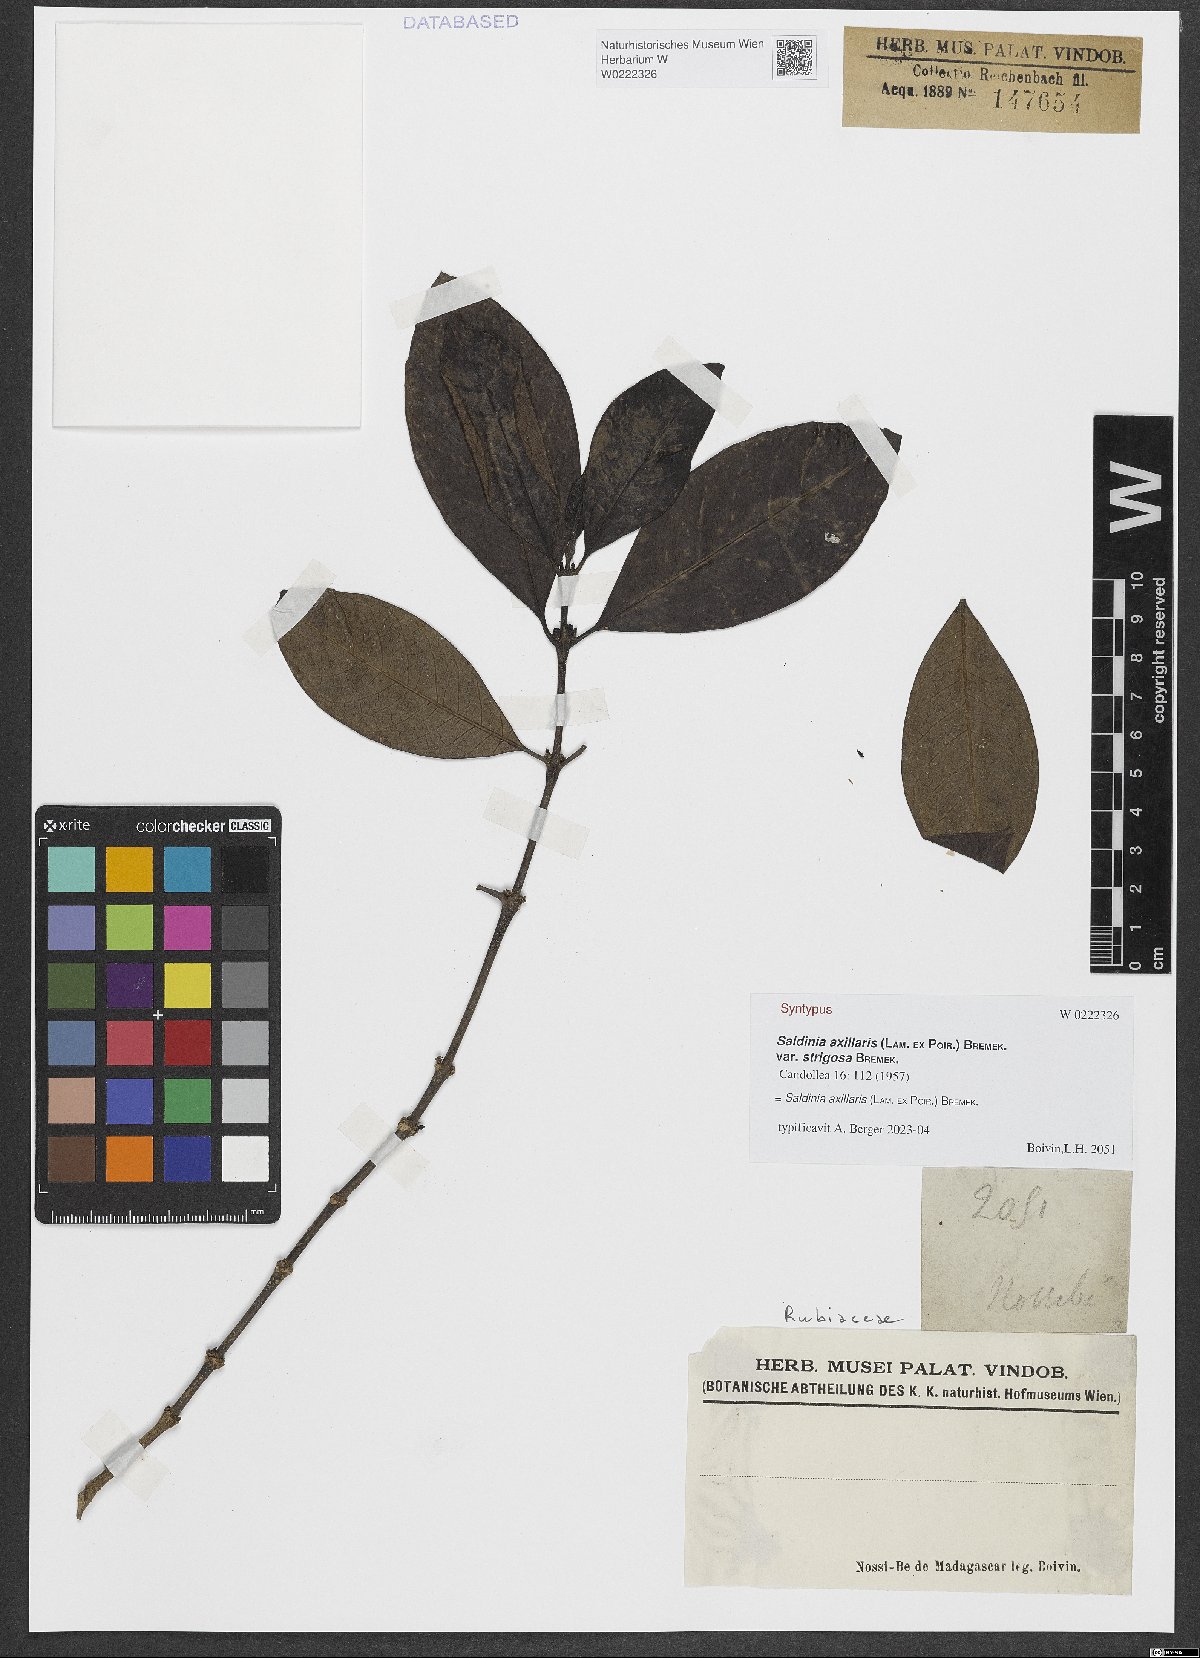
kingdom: Plantae
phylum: Tracheophyta
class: Magnoliopsida
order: Gentianales
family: Rubiaceae
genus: Saldinia
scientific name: Saldinia axillaris
